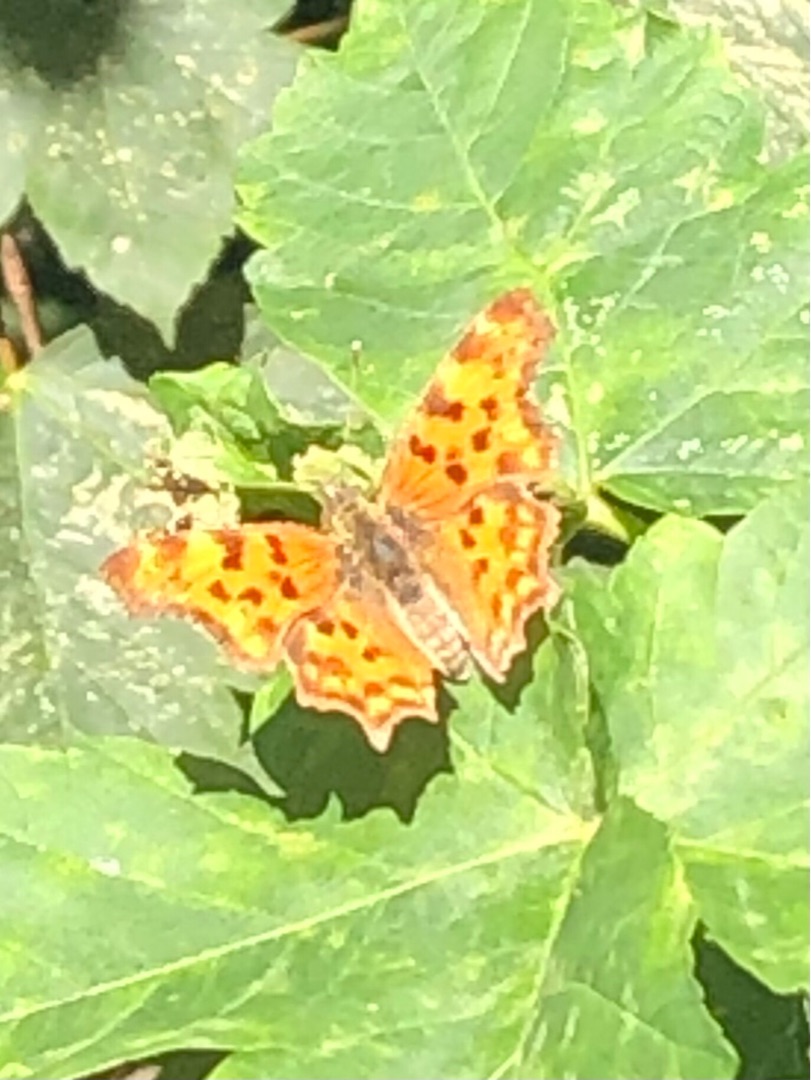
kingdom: Animalia
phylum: Arthropoda
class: Insecta
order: Lepidoptera
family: Nymphalidae
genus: Polygonia
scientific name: Polygonia c-album
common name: Det hvide C
